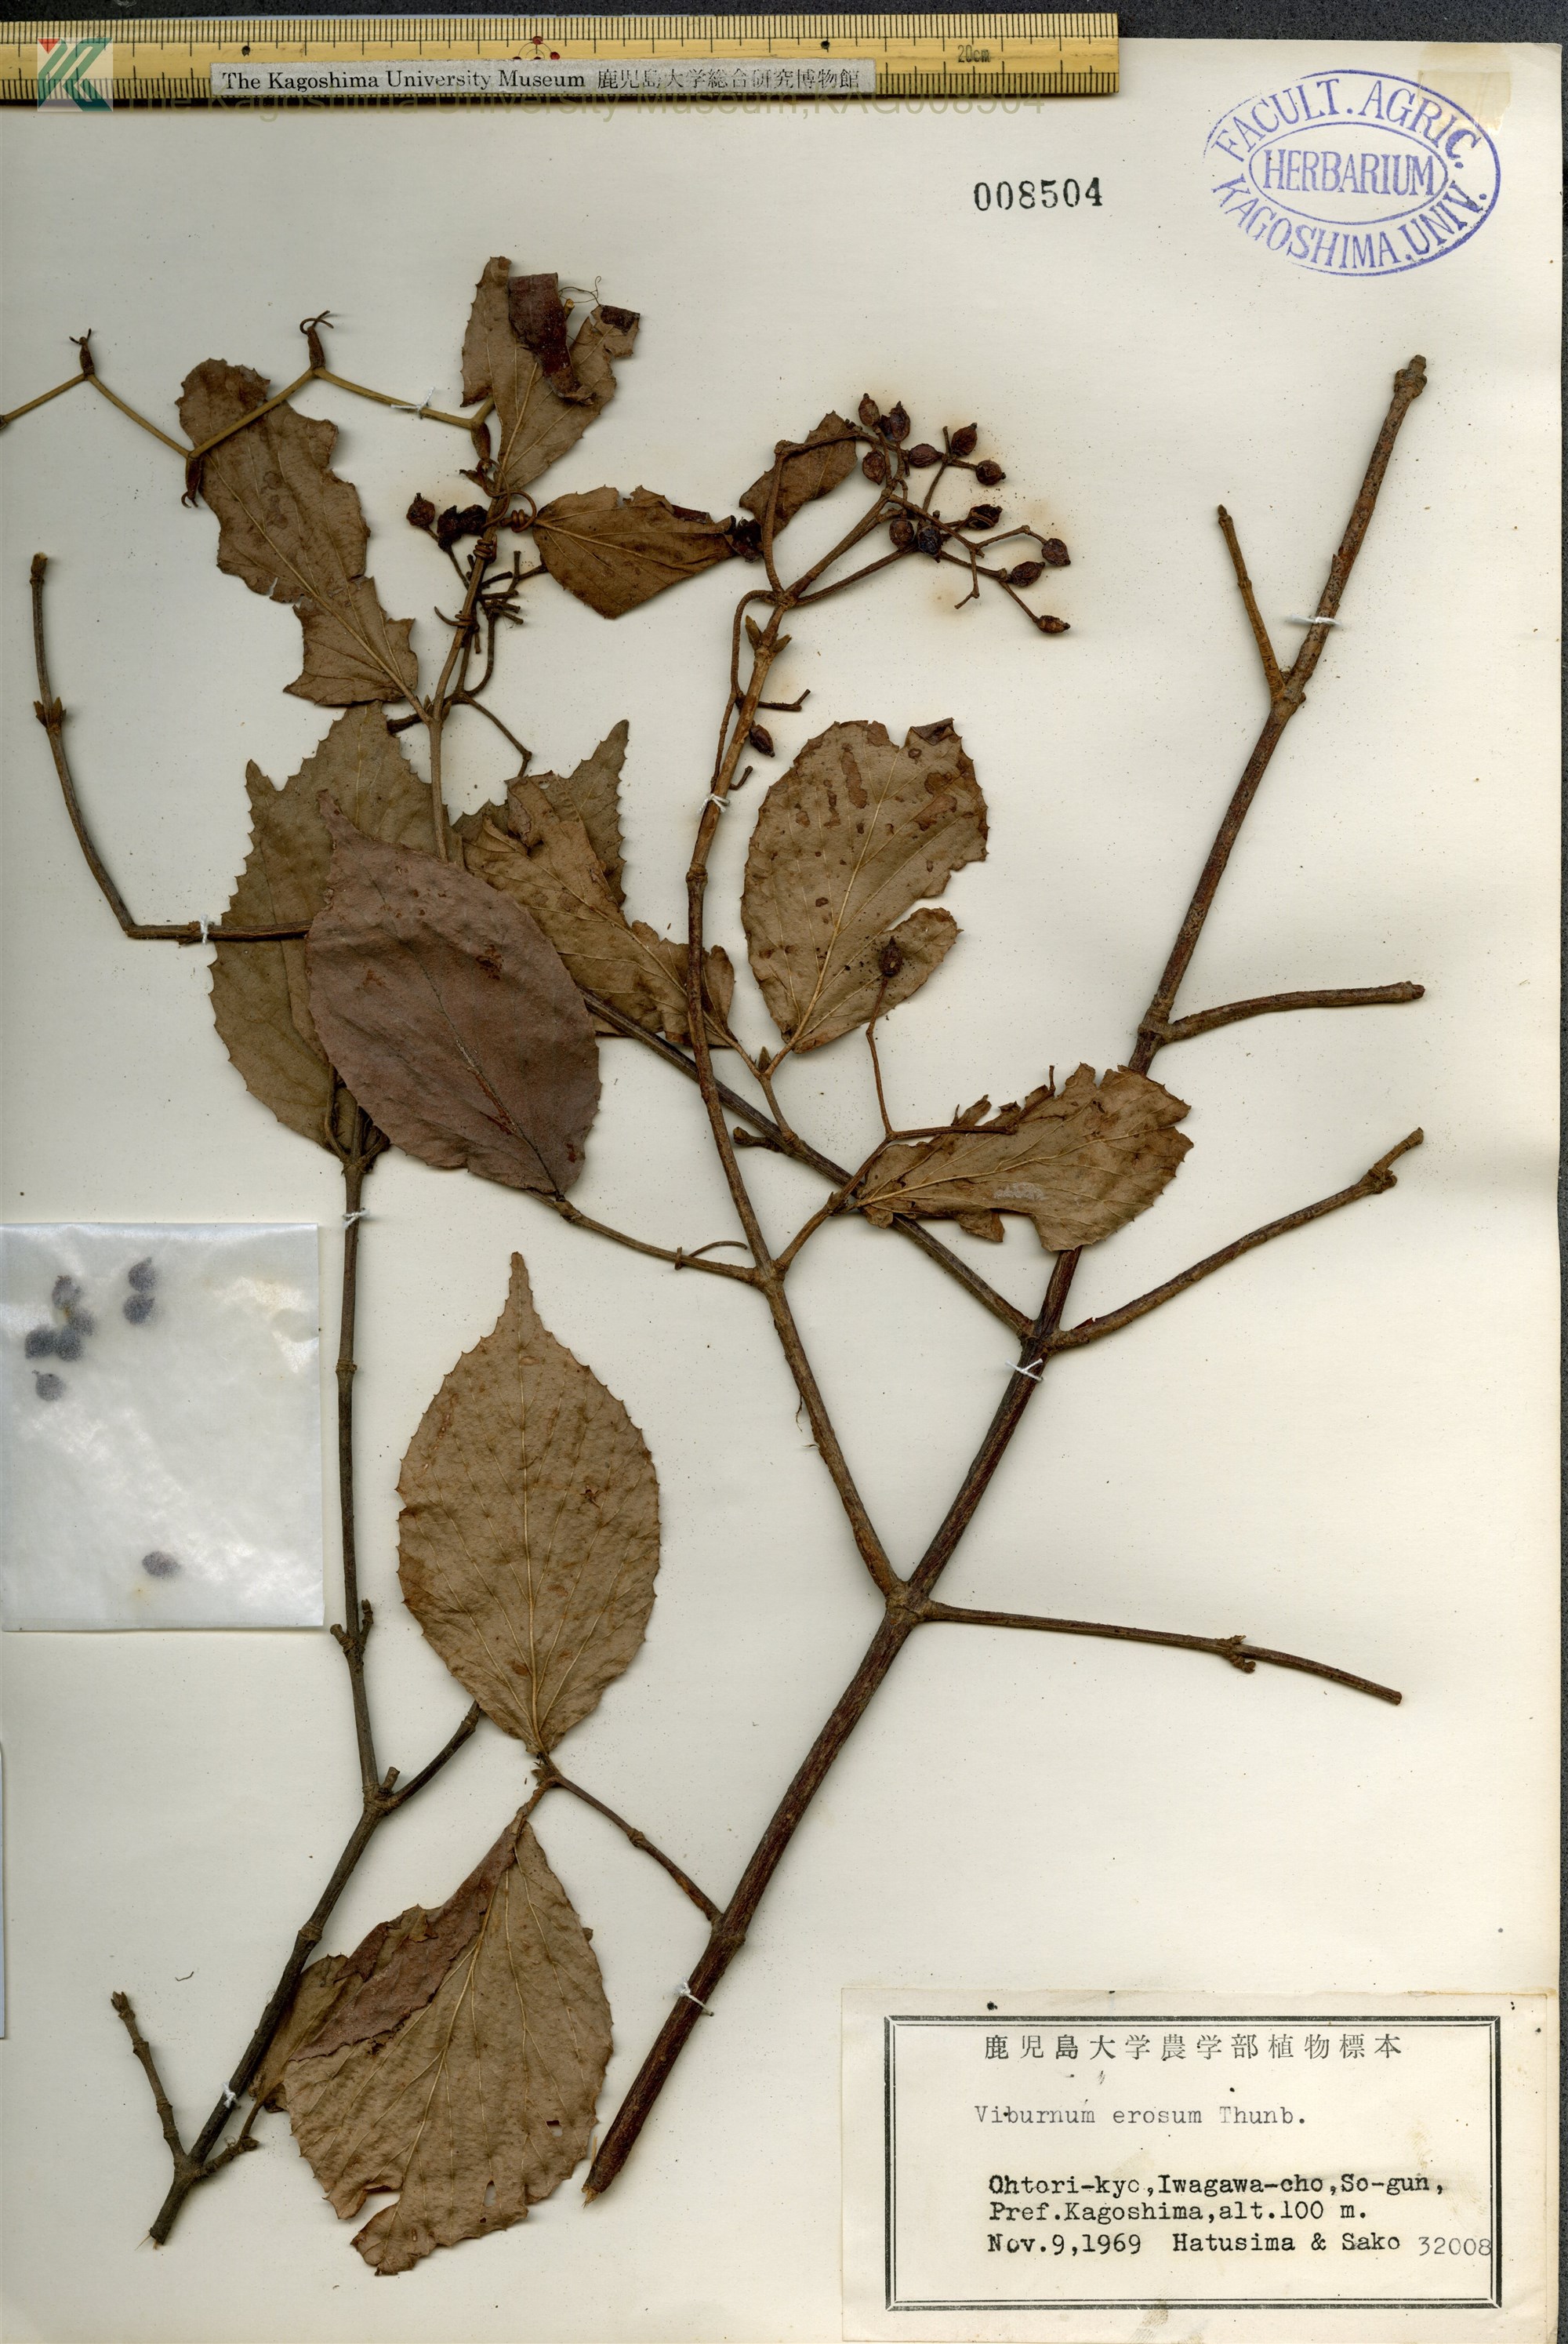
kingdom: Plantae
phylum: Tracheophyta
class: Magnoliopsida
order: Dipsacales
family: Viburnaceae
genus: Viburnum
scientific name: Viburnum erosum
